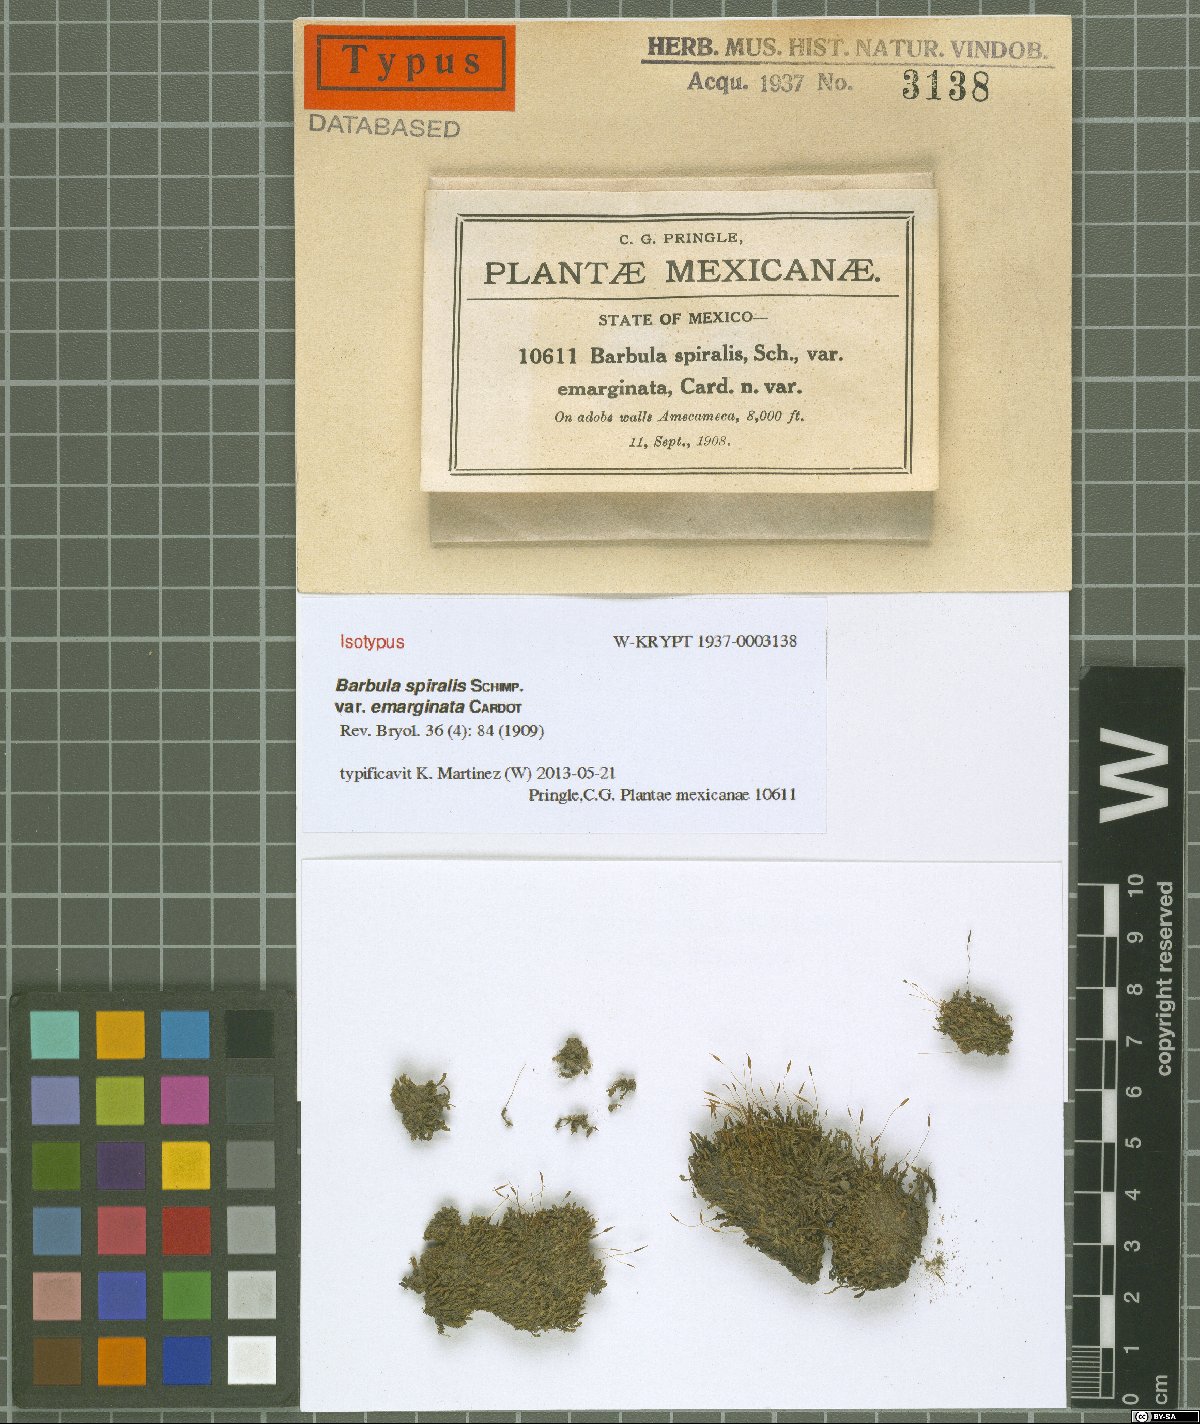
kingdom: Plantae
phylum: Bryophyta
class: Bryopsida
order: Pottiales
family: Pottiaceae
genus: Pseudocrossidium
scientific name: Pseudocrossidium replicatum
